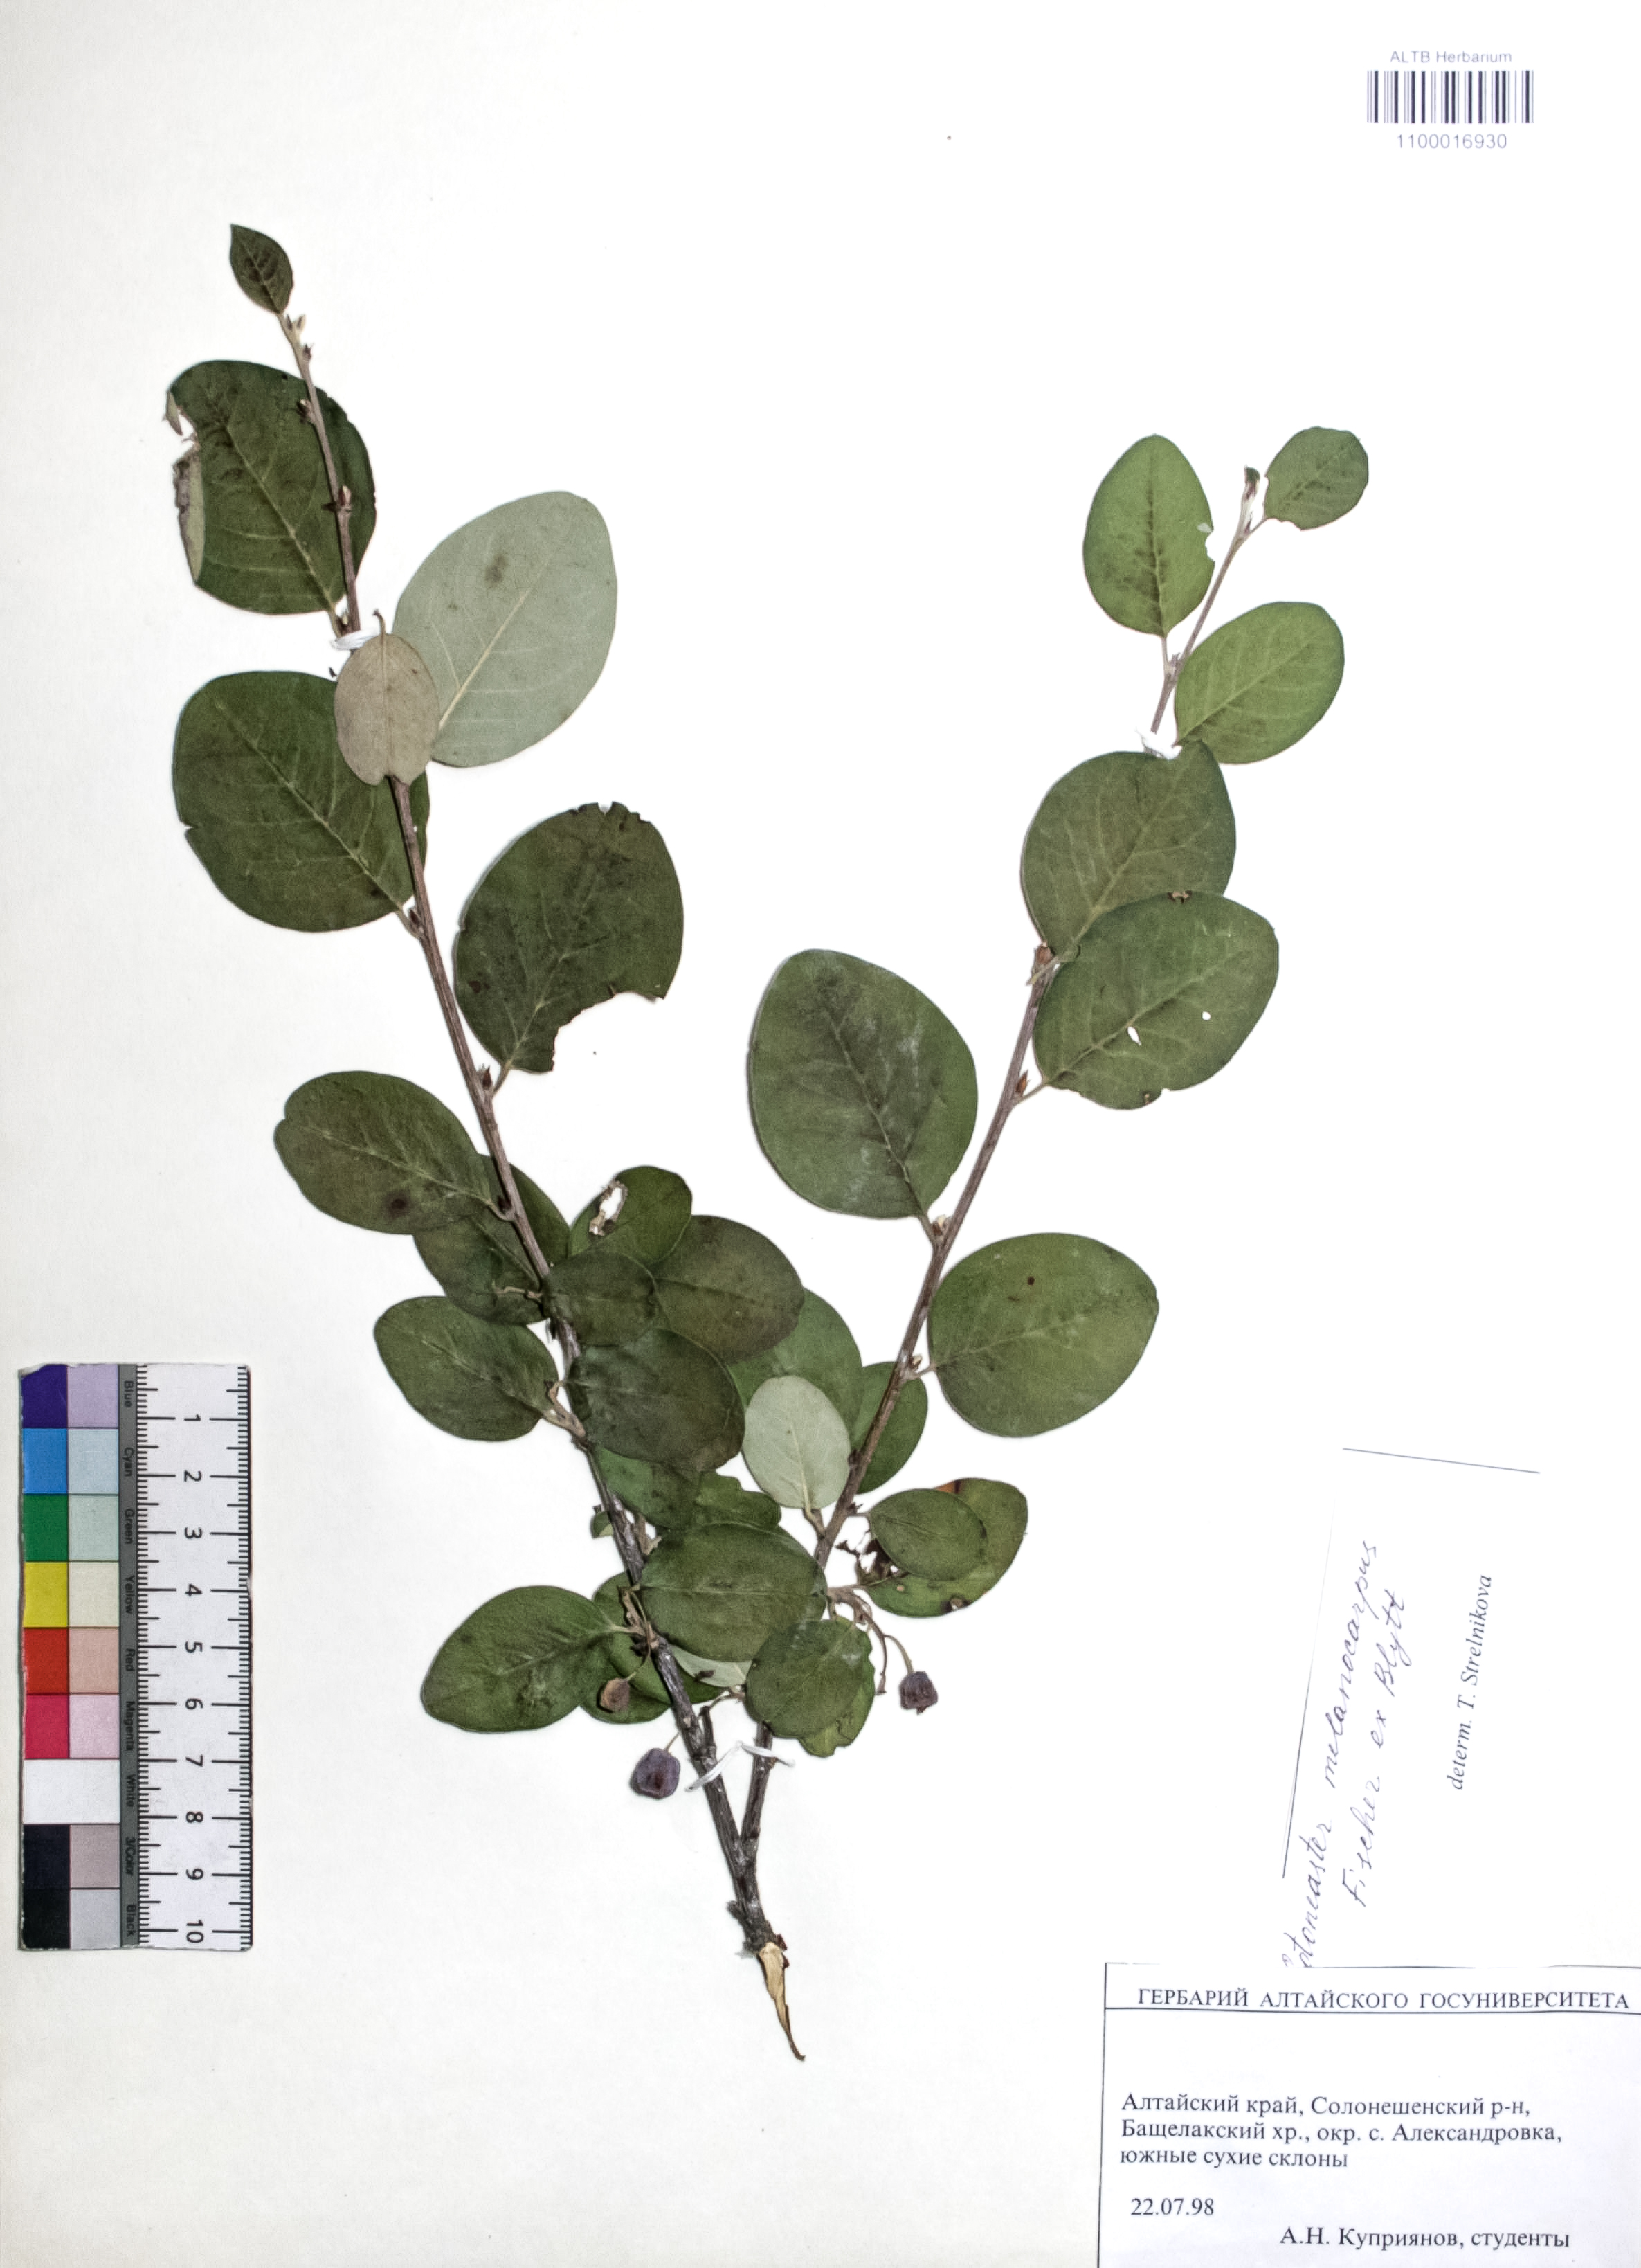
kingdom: Plantae
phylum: Tracheophyta
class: Magnoliopsida
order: Rosales
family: Rosaceae
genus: Cotoneaster
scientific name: Cotoneaster niger
